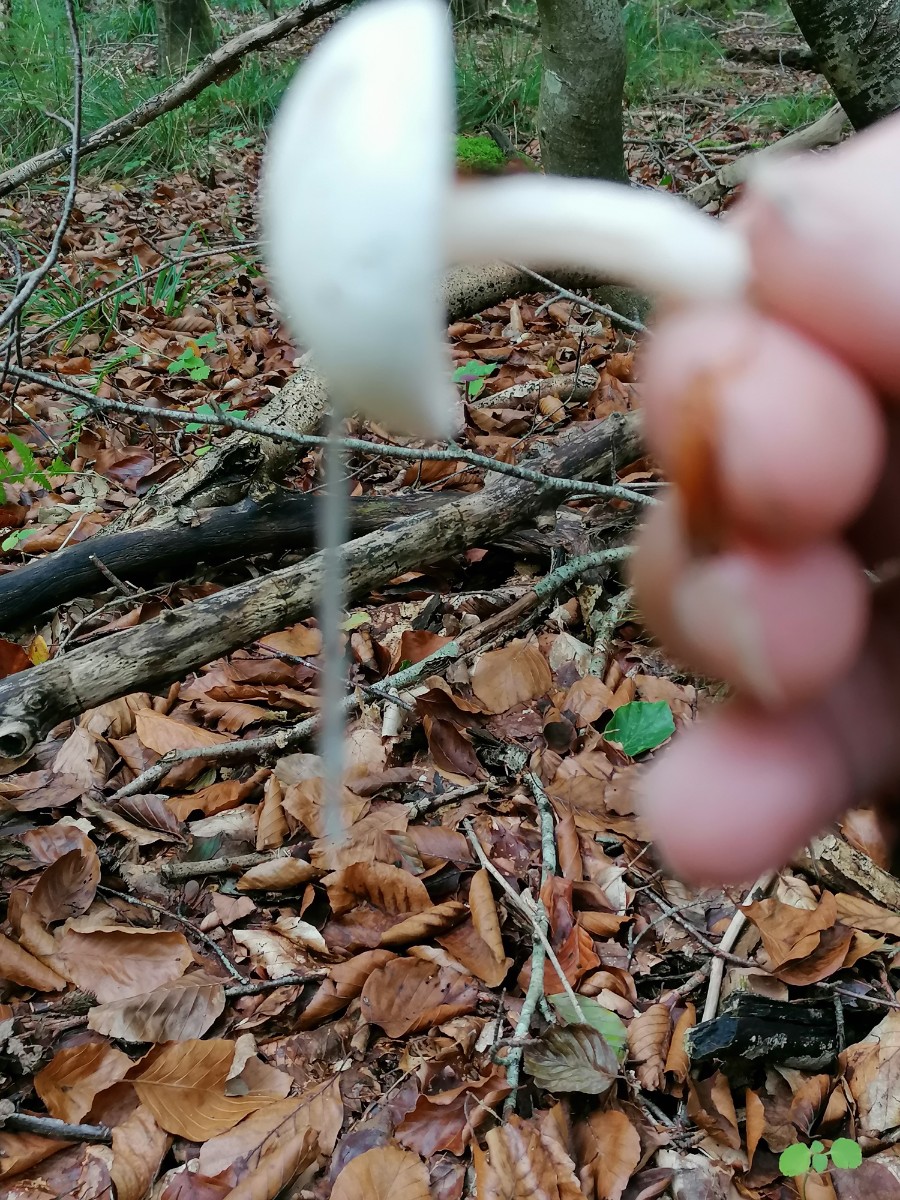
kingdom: Fungi
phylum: Basidiomycota
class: Agaricomycetes
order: Agaricales
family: Hygrophoraceae
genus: Hygrophorus
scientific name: Hygrophorus eburneus
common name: elfenbens-sneglehat
